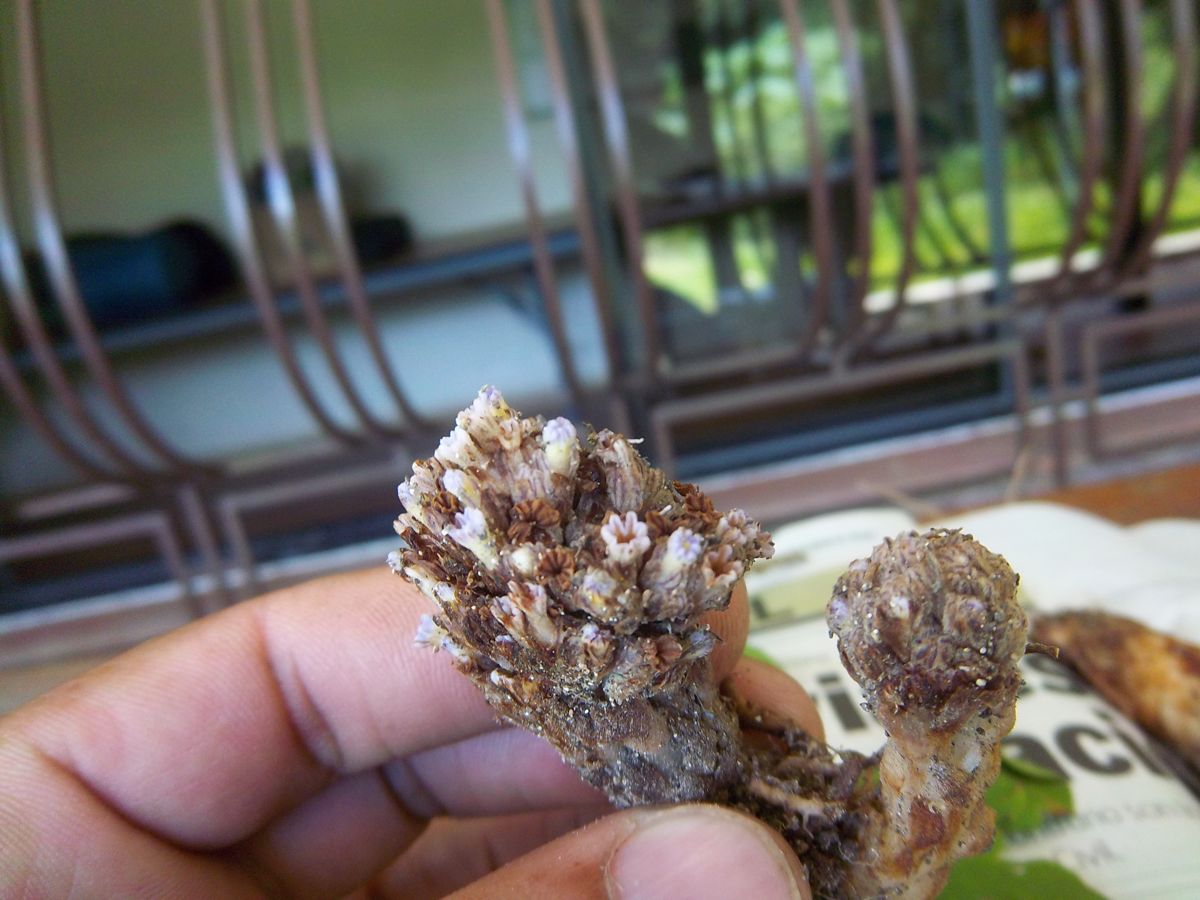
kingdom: Plantae
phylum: Tracheophyta
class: Magnoliopsida
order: Boraginales
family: Lennoaceae
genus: Lennoa
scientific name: Lennoa madreporoides
